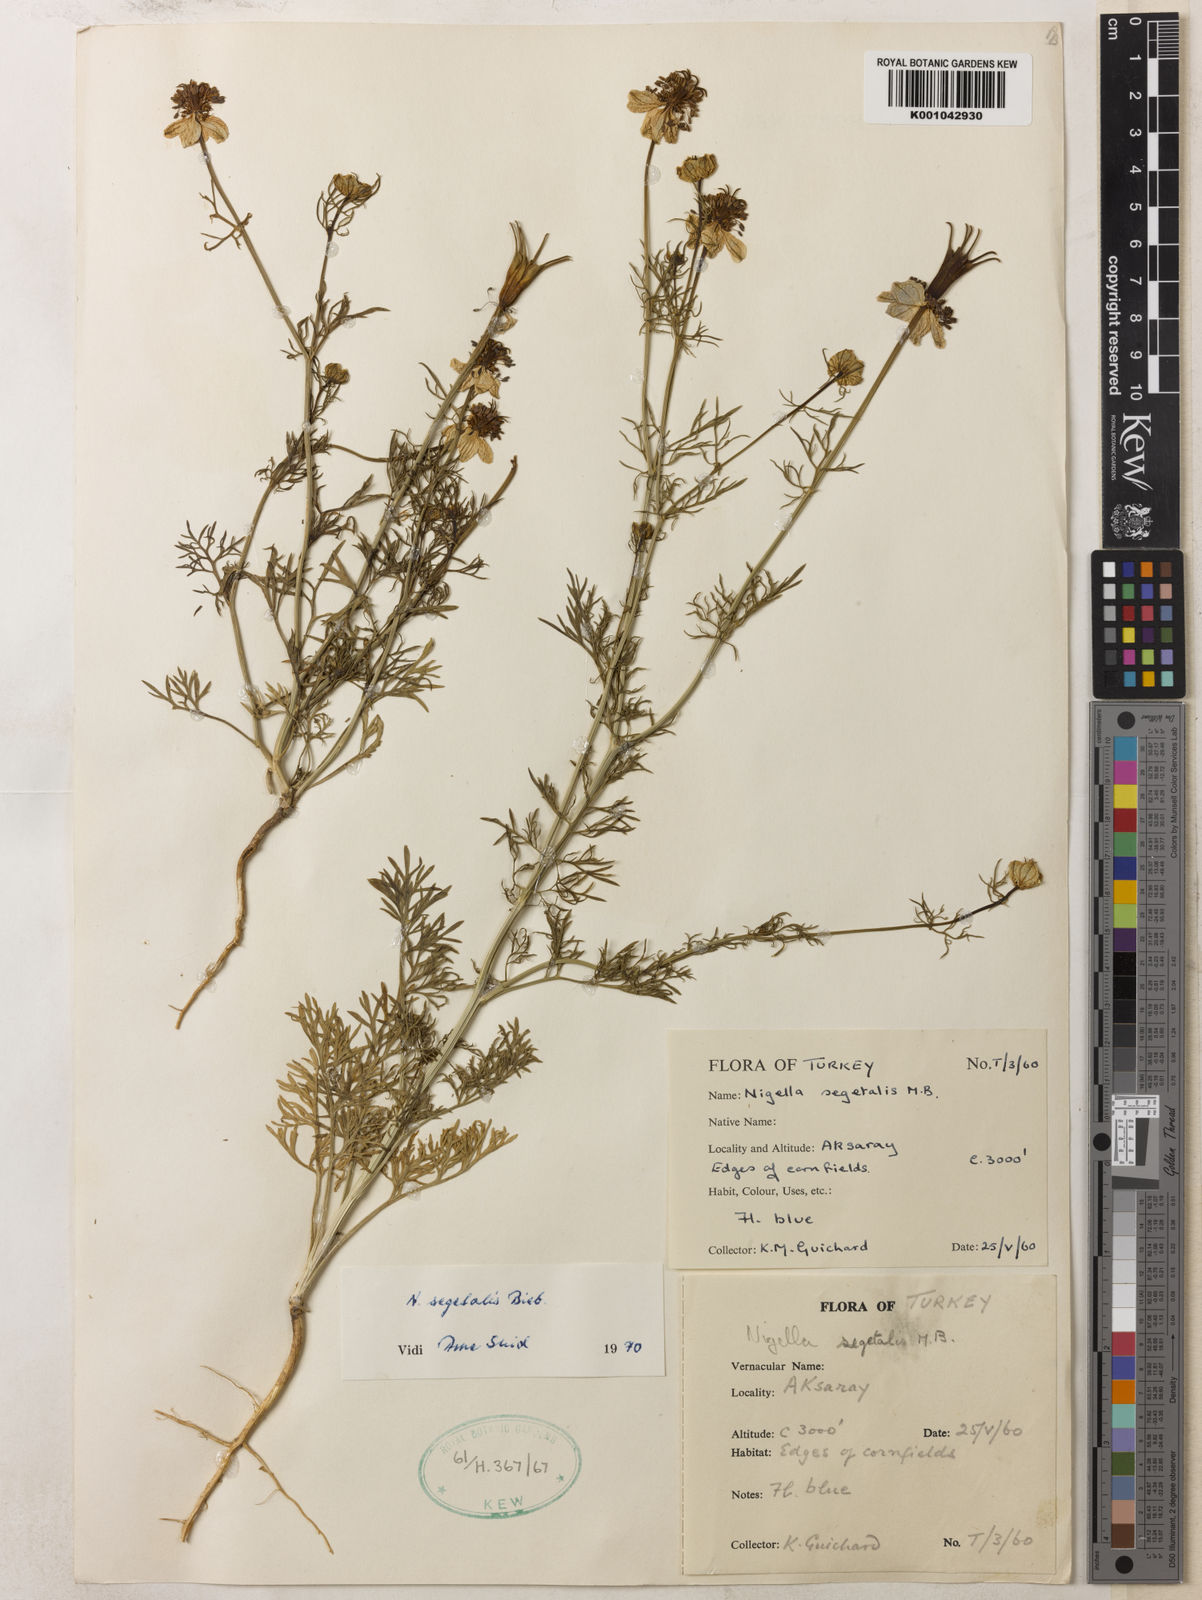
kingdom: Plantae
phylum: Tracheophyta
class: Magnoliopsida
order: Ranunculales
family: Ranunculaceae
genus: Nigella
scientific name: Nigella segetalis
